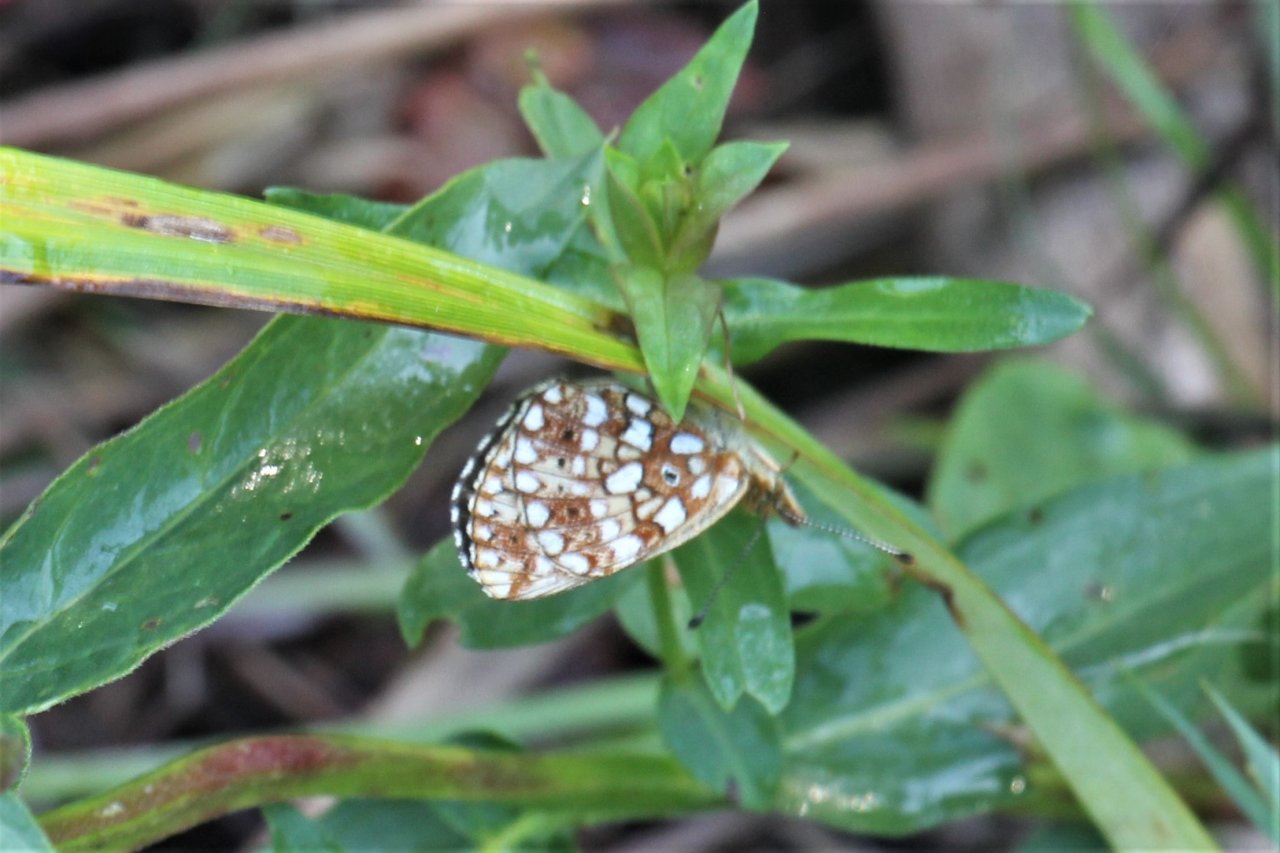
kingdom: Animalia
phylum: Arthropoda
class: Insecta
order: Lepidoptera
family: Nymphalidae
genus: Boloria
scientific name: Boloria selene
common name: Silver-bordered Fritillary
